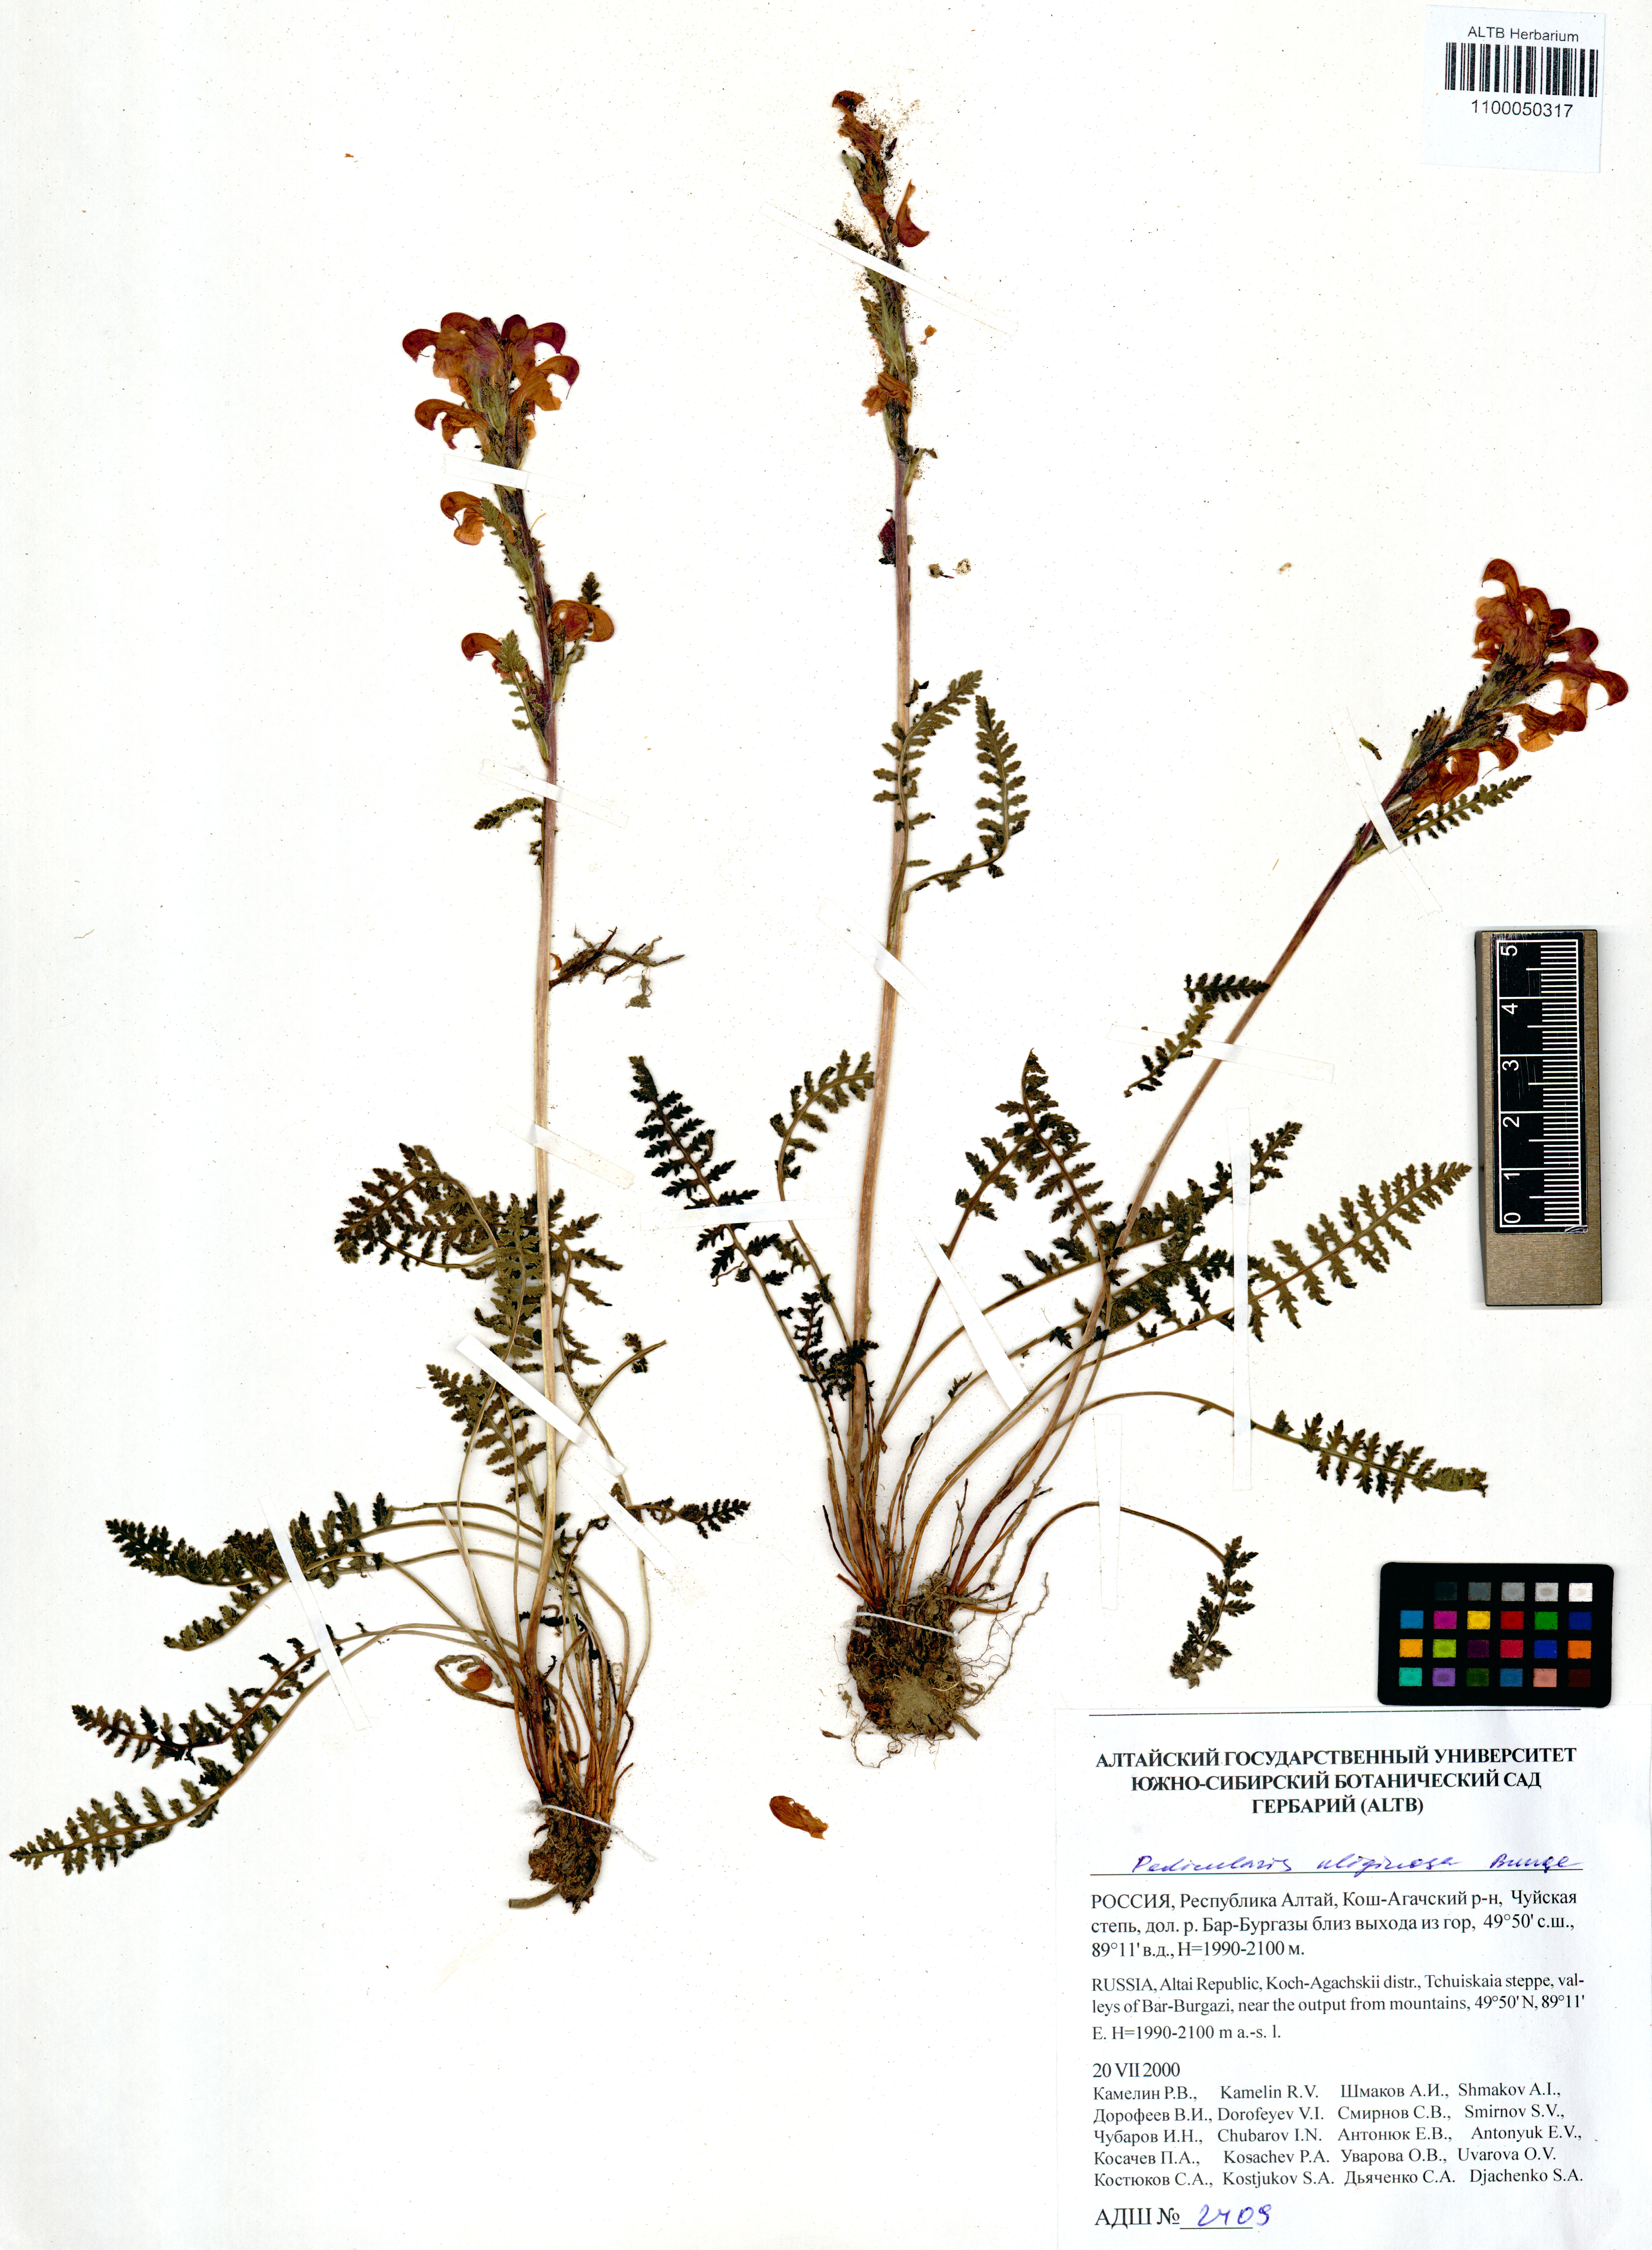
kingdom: Plantae
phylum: Tracheophyta
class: Magnoliopsida
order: Lamiales
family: Orobanchaceae
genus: Pedicularis
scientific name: Pedicularis uliginosa
